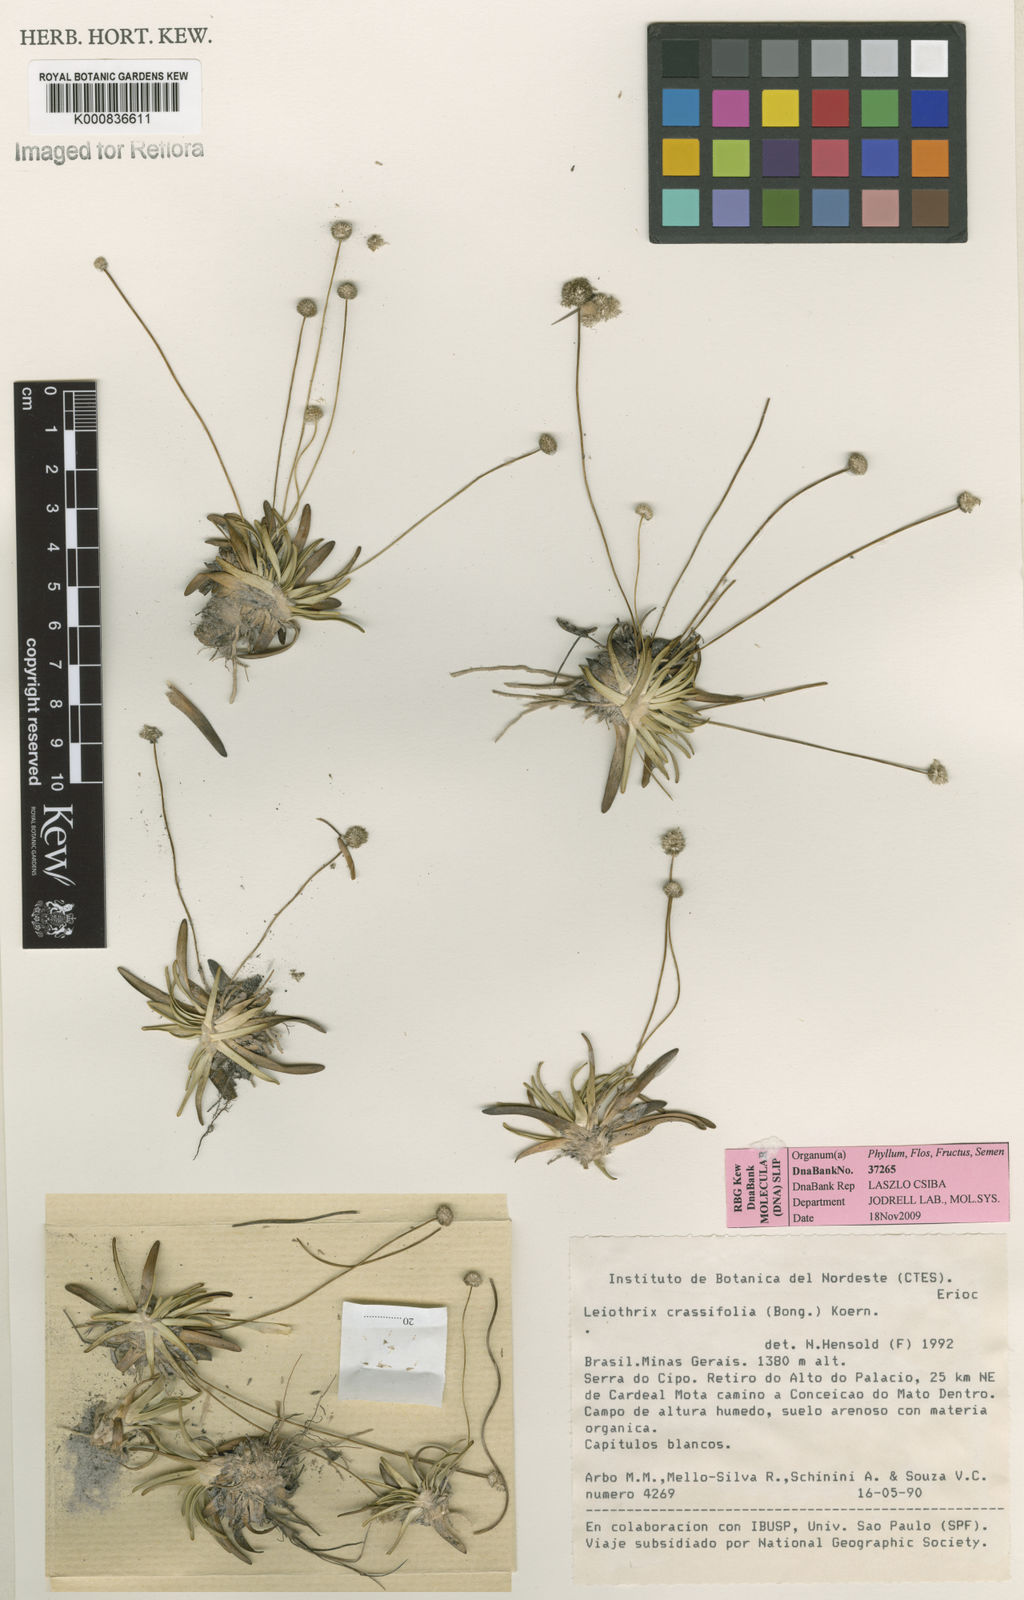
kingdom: Plantae
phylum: Tracheophyta
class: Liliopsida
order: Poales
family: Eriocaulaceae
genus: Leiothrix
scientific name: Leiothrix crassifolia
